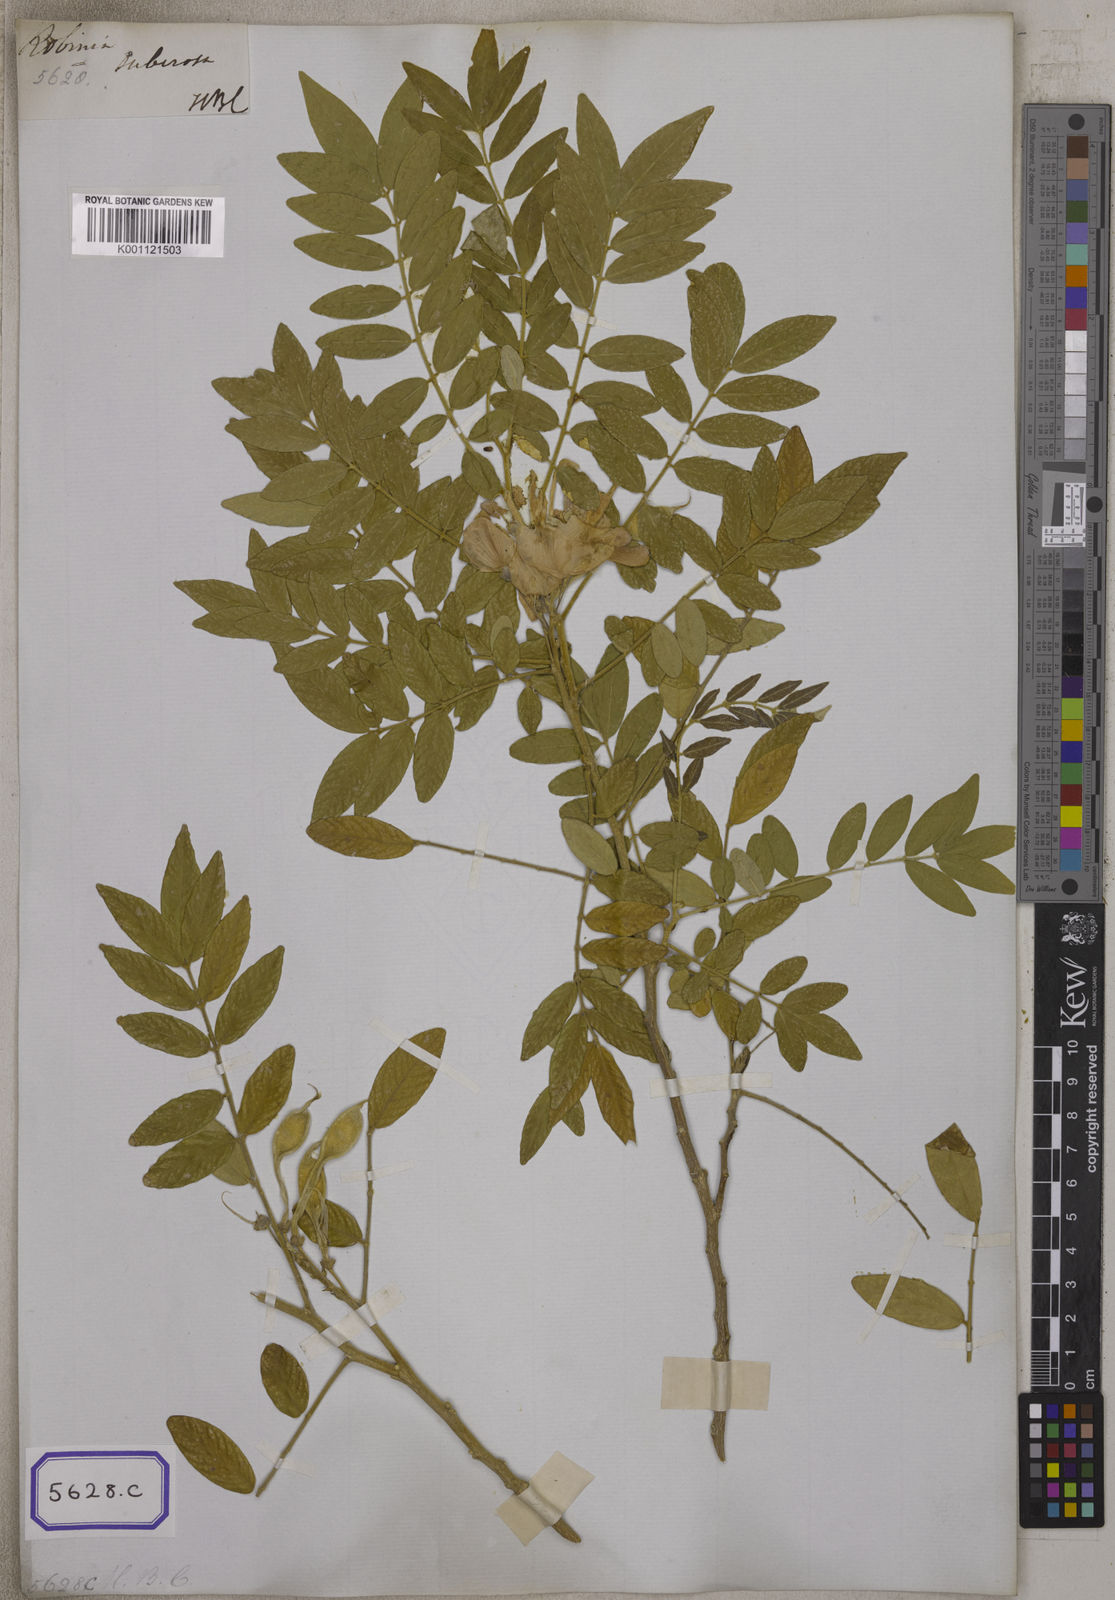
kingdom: Plantae
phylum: Tracheophyta
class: Magnoliopsida
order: Fabales
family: Fabaceae
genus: Mundulea
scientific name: Mundulea sericea
